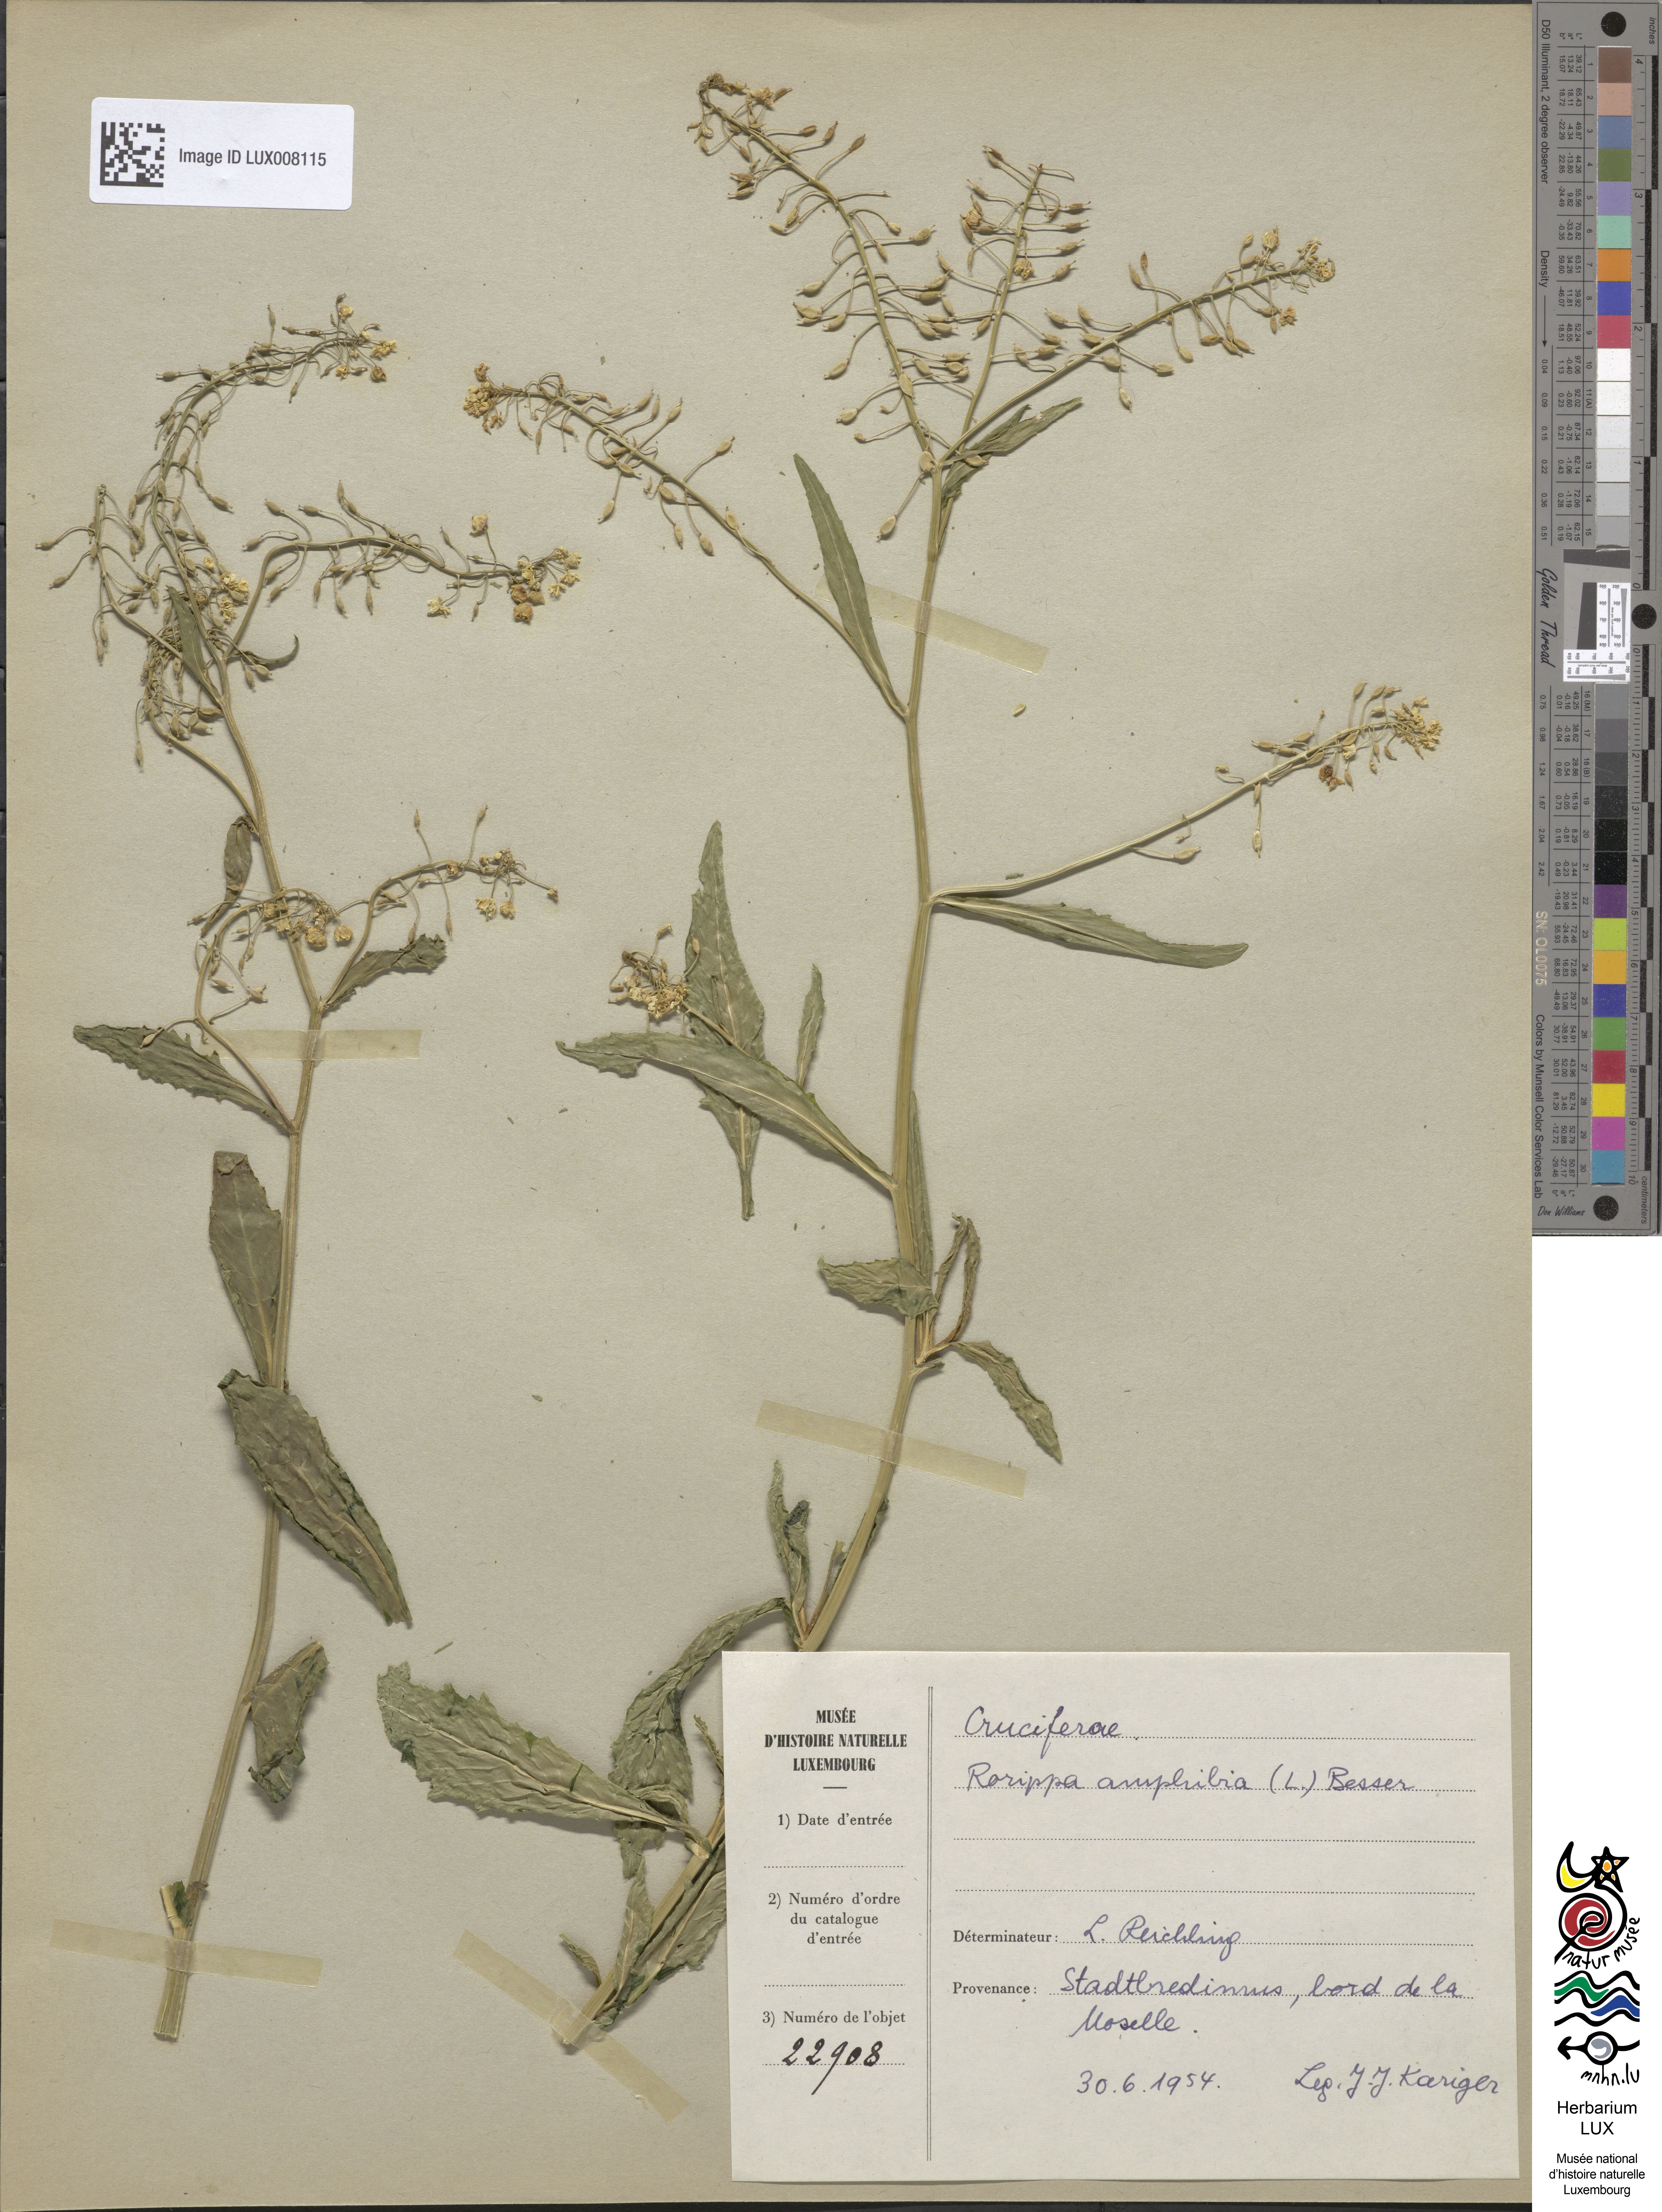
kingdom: Plantae
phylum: Tracheophyta
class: Magnoliopsida
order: Brassicales
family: Brassicaceae
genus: Rorippa
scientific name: Rorippa amphibia
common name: Great yellow-cress
